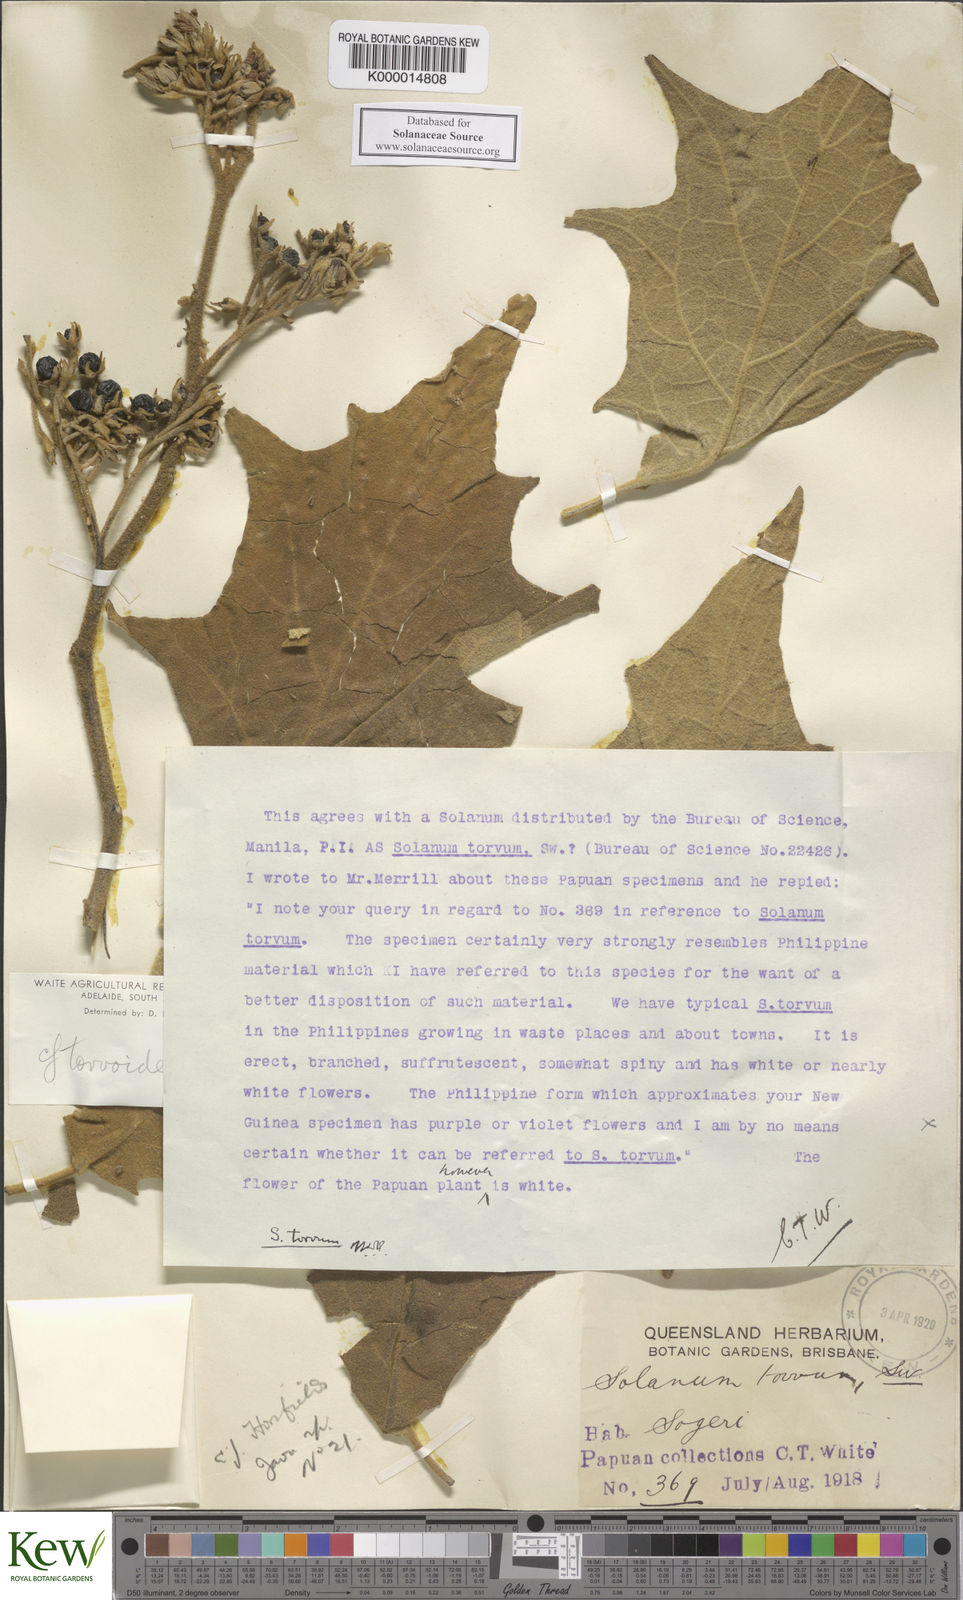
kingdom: Plantae
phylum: Tracheophyta
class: Magnoliopsida
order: Solanales
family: Solanaceae
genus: Solanum
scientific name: Solanum torvoideum
